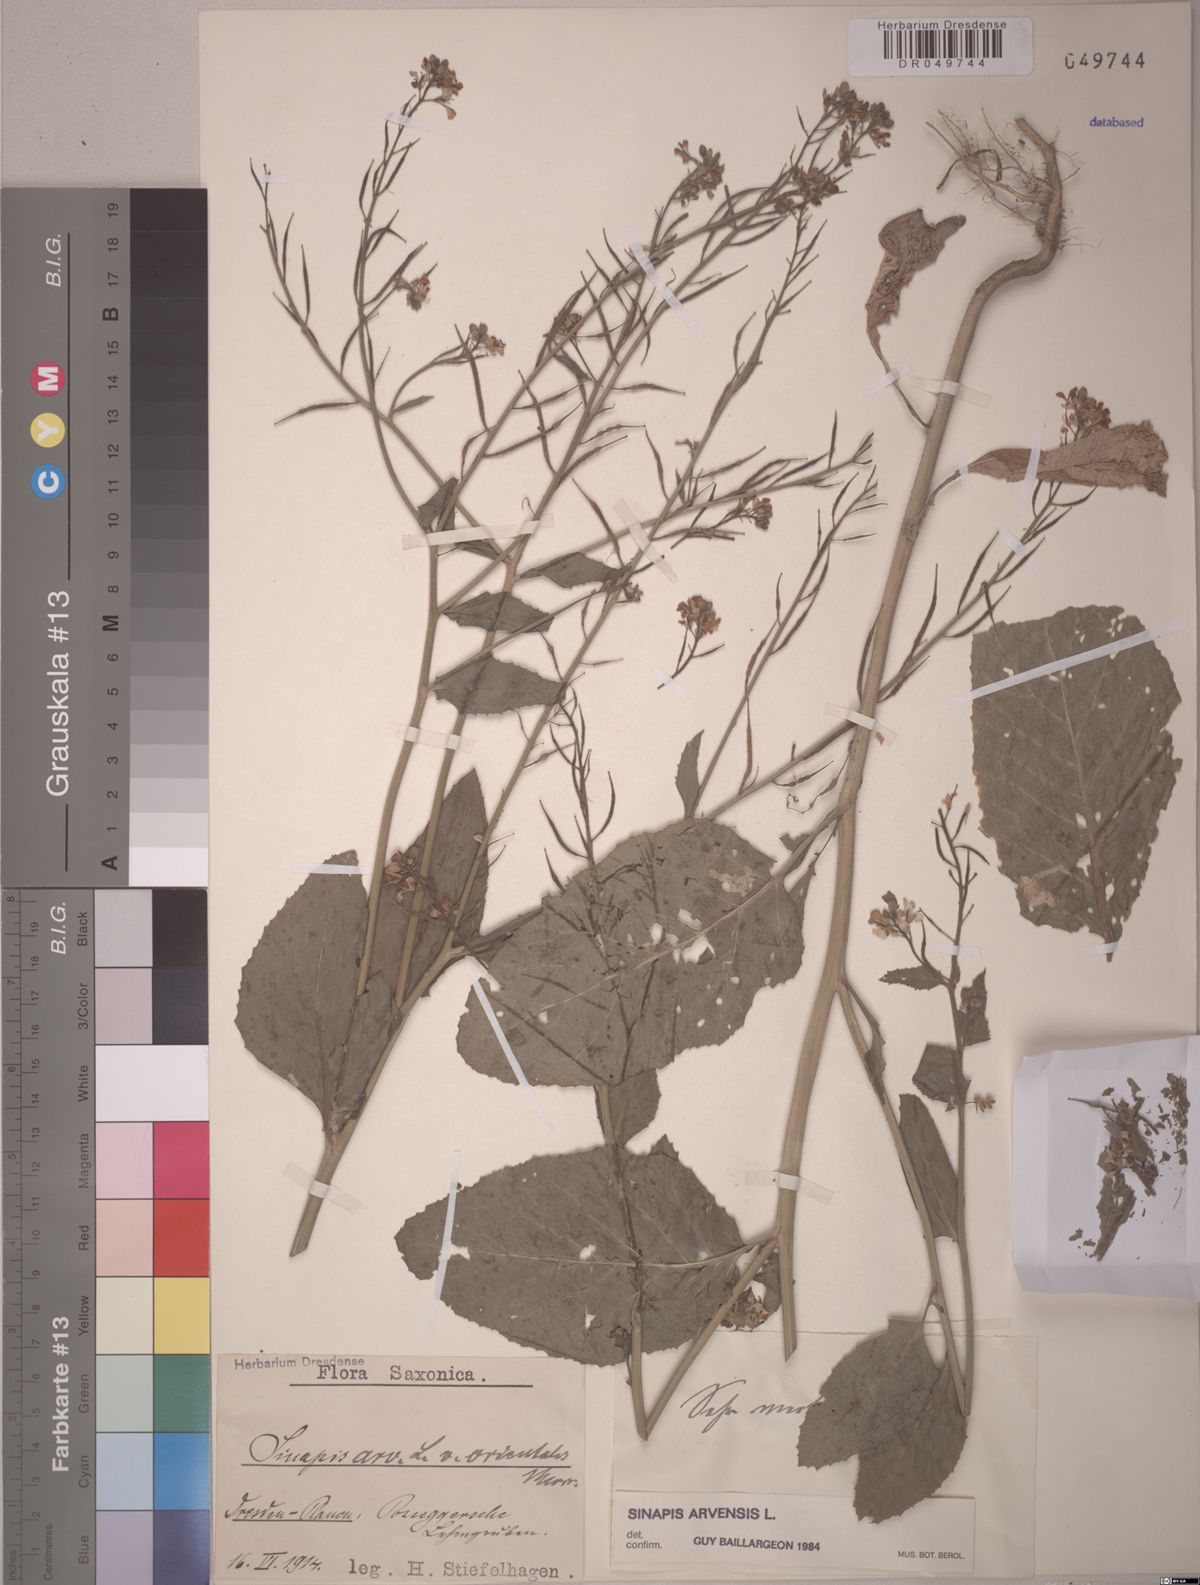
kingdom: Plantae
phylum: Tracheophyta
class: Magnoliopsida
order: Brassicales
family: Brassicaceae
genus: Sinapis
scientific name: Sinapis arvensis
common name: Charlock
